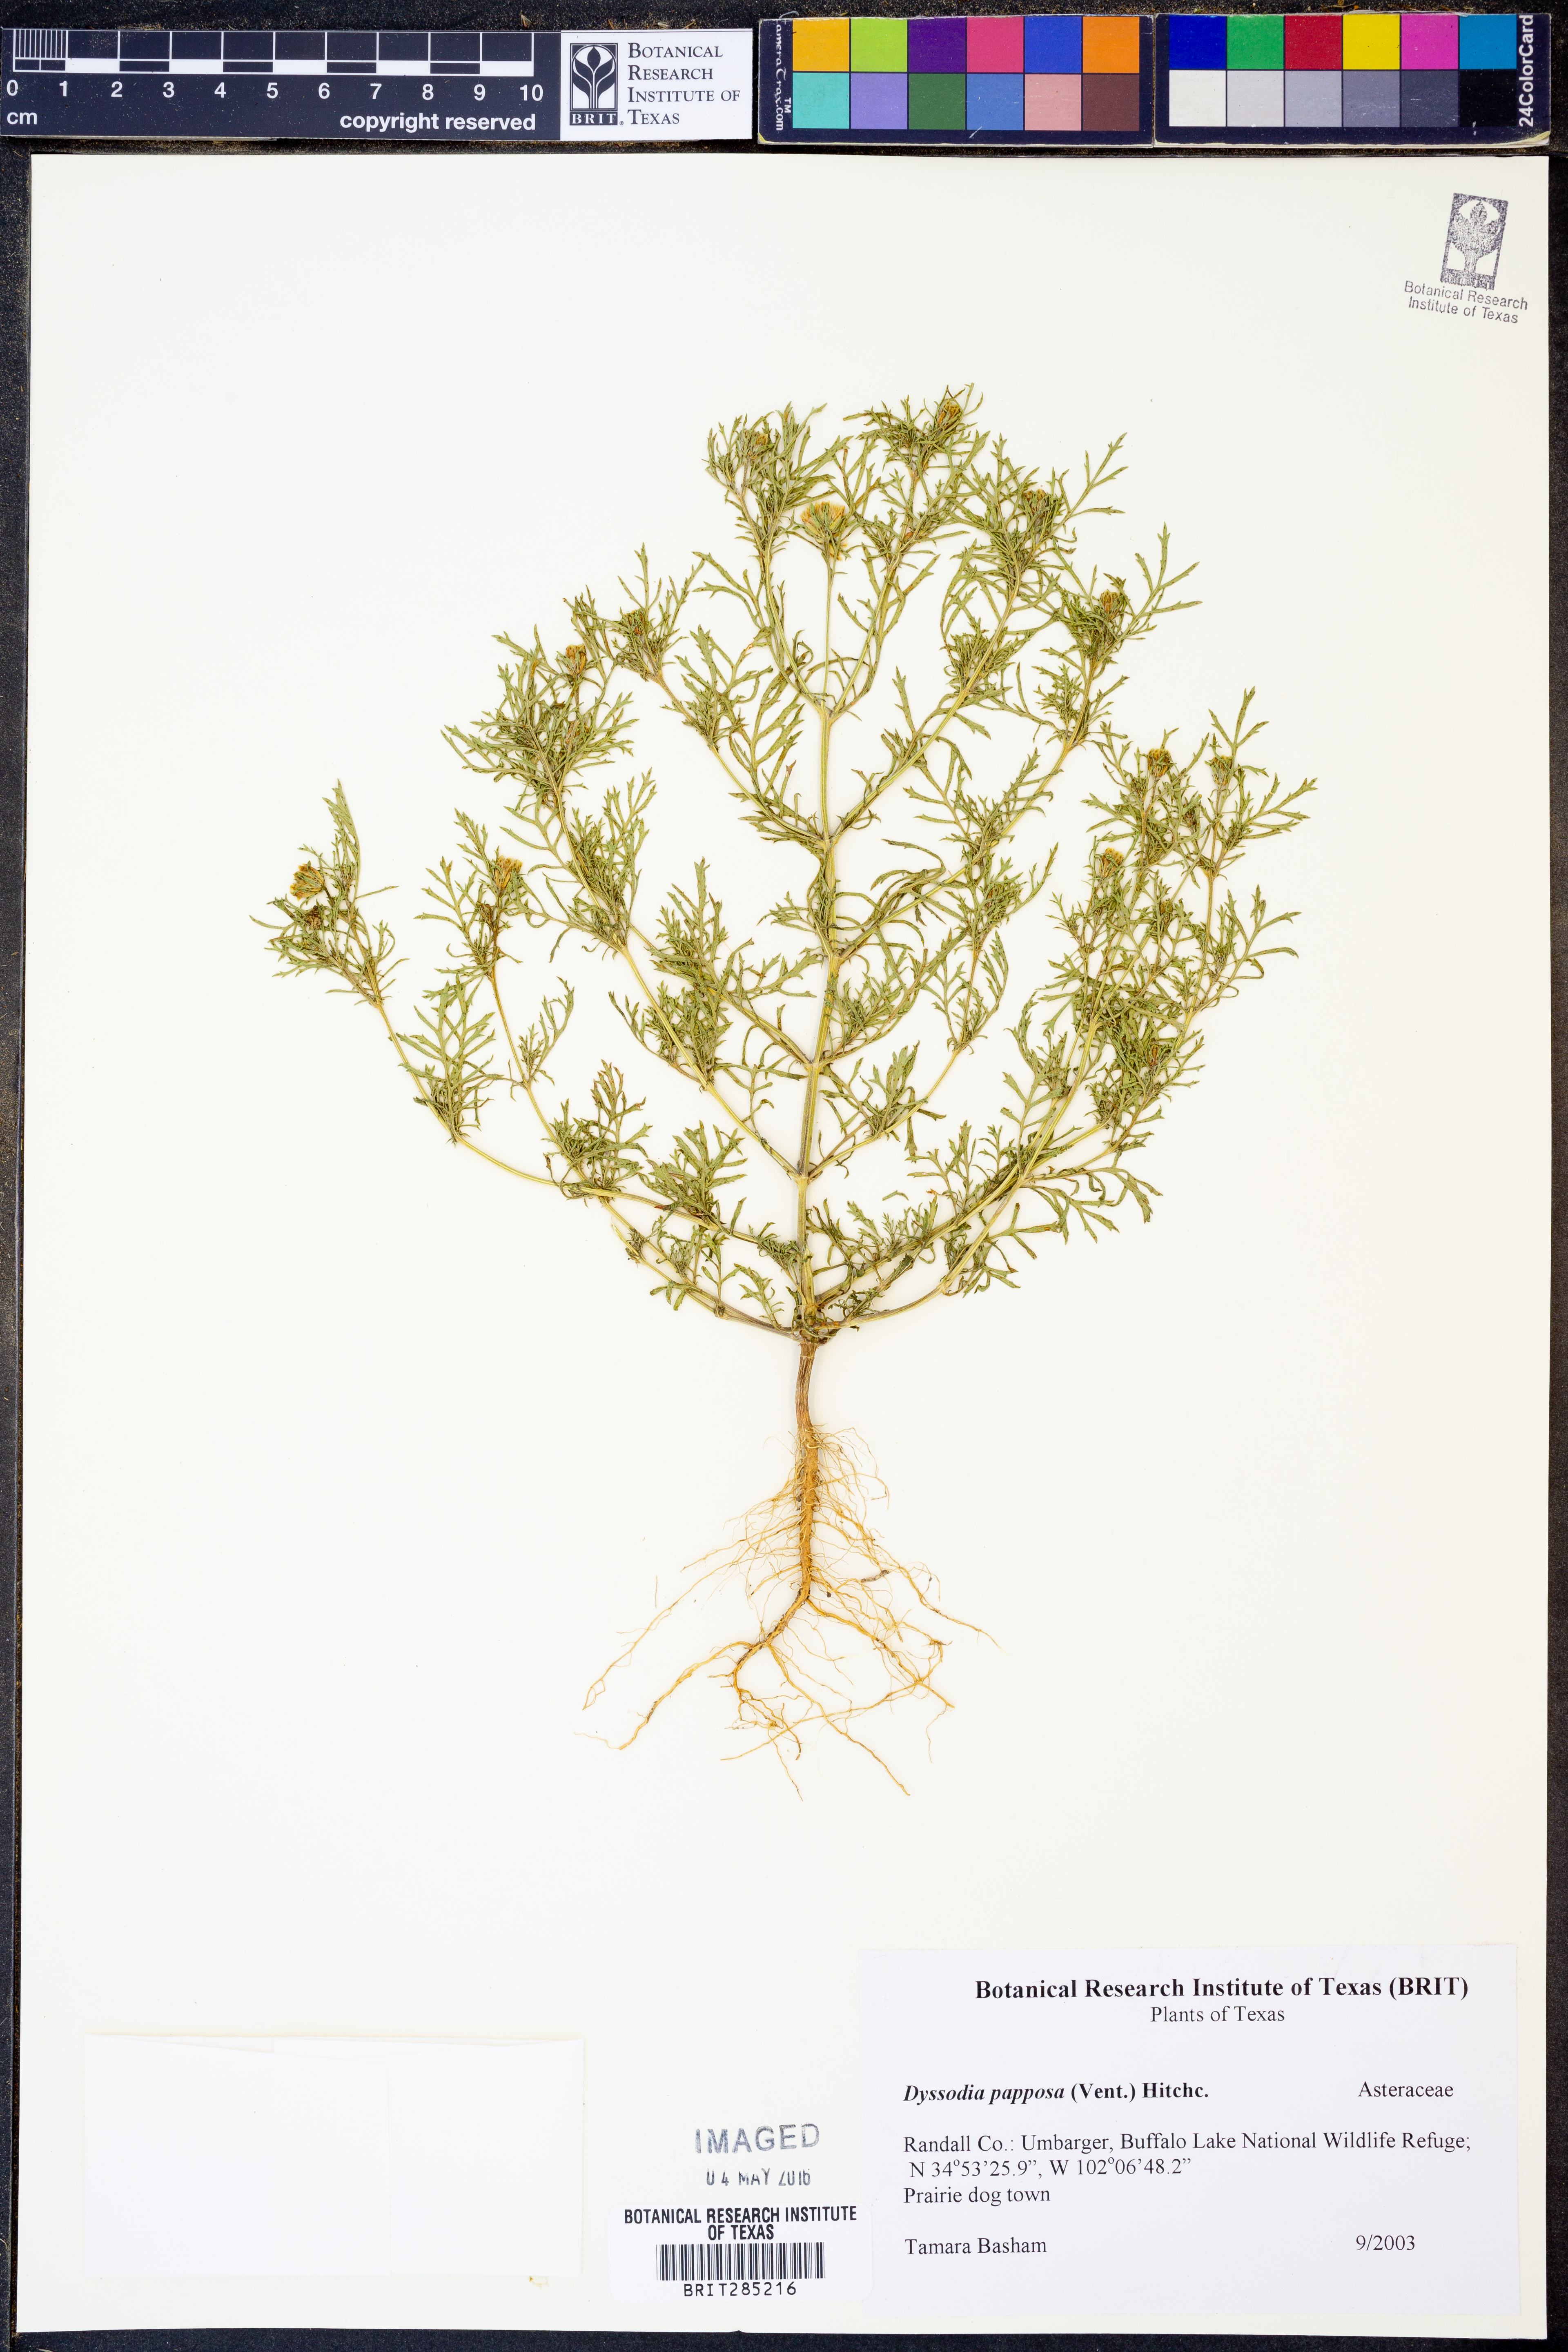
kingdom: Plantae
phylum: Tracheophyta
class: Magnoliopsida
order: Asterales
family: Asteraceae
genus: Dyssodia
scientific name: Dyssodia papposa
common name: Dogweed
